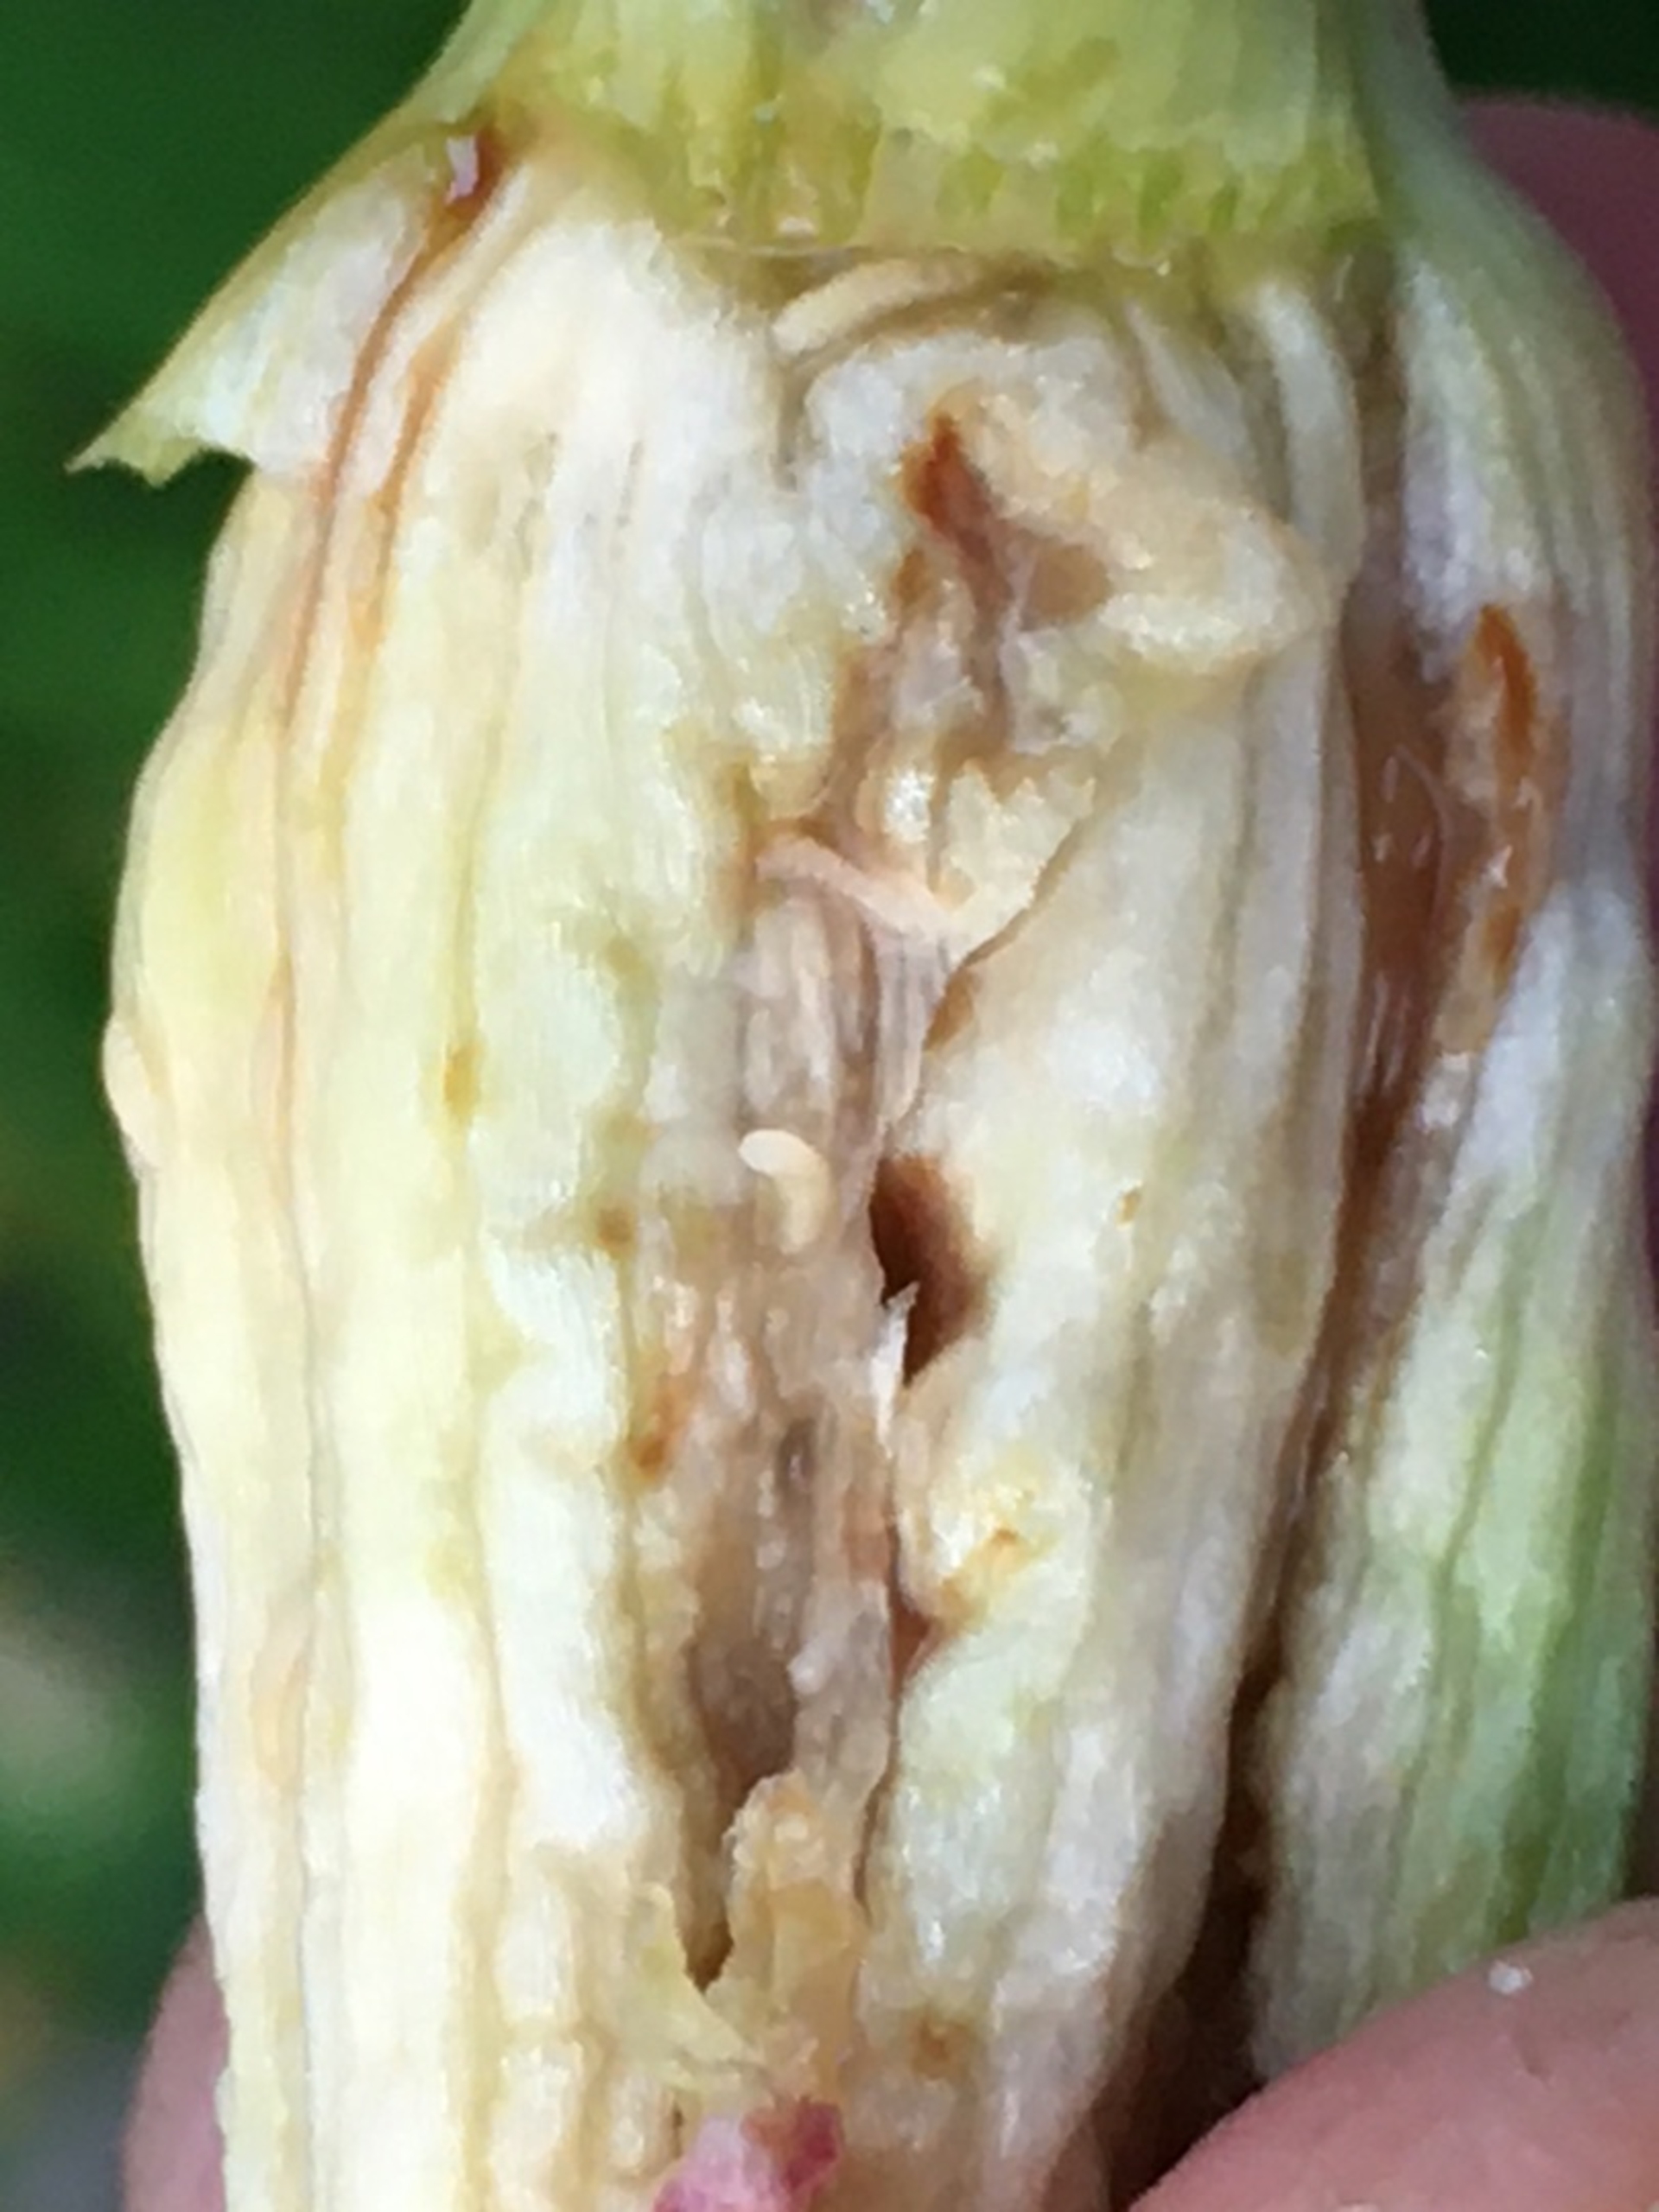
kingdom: Animalia
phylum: Arthropoda
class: Insecta
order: Diptera
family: Cecidomyiidae
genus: Contarinia
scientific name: Contarinia quinquenotata
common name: Dagliljegalmyg
